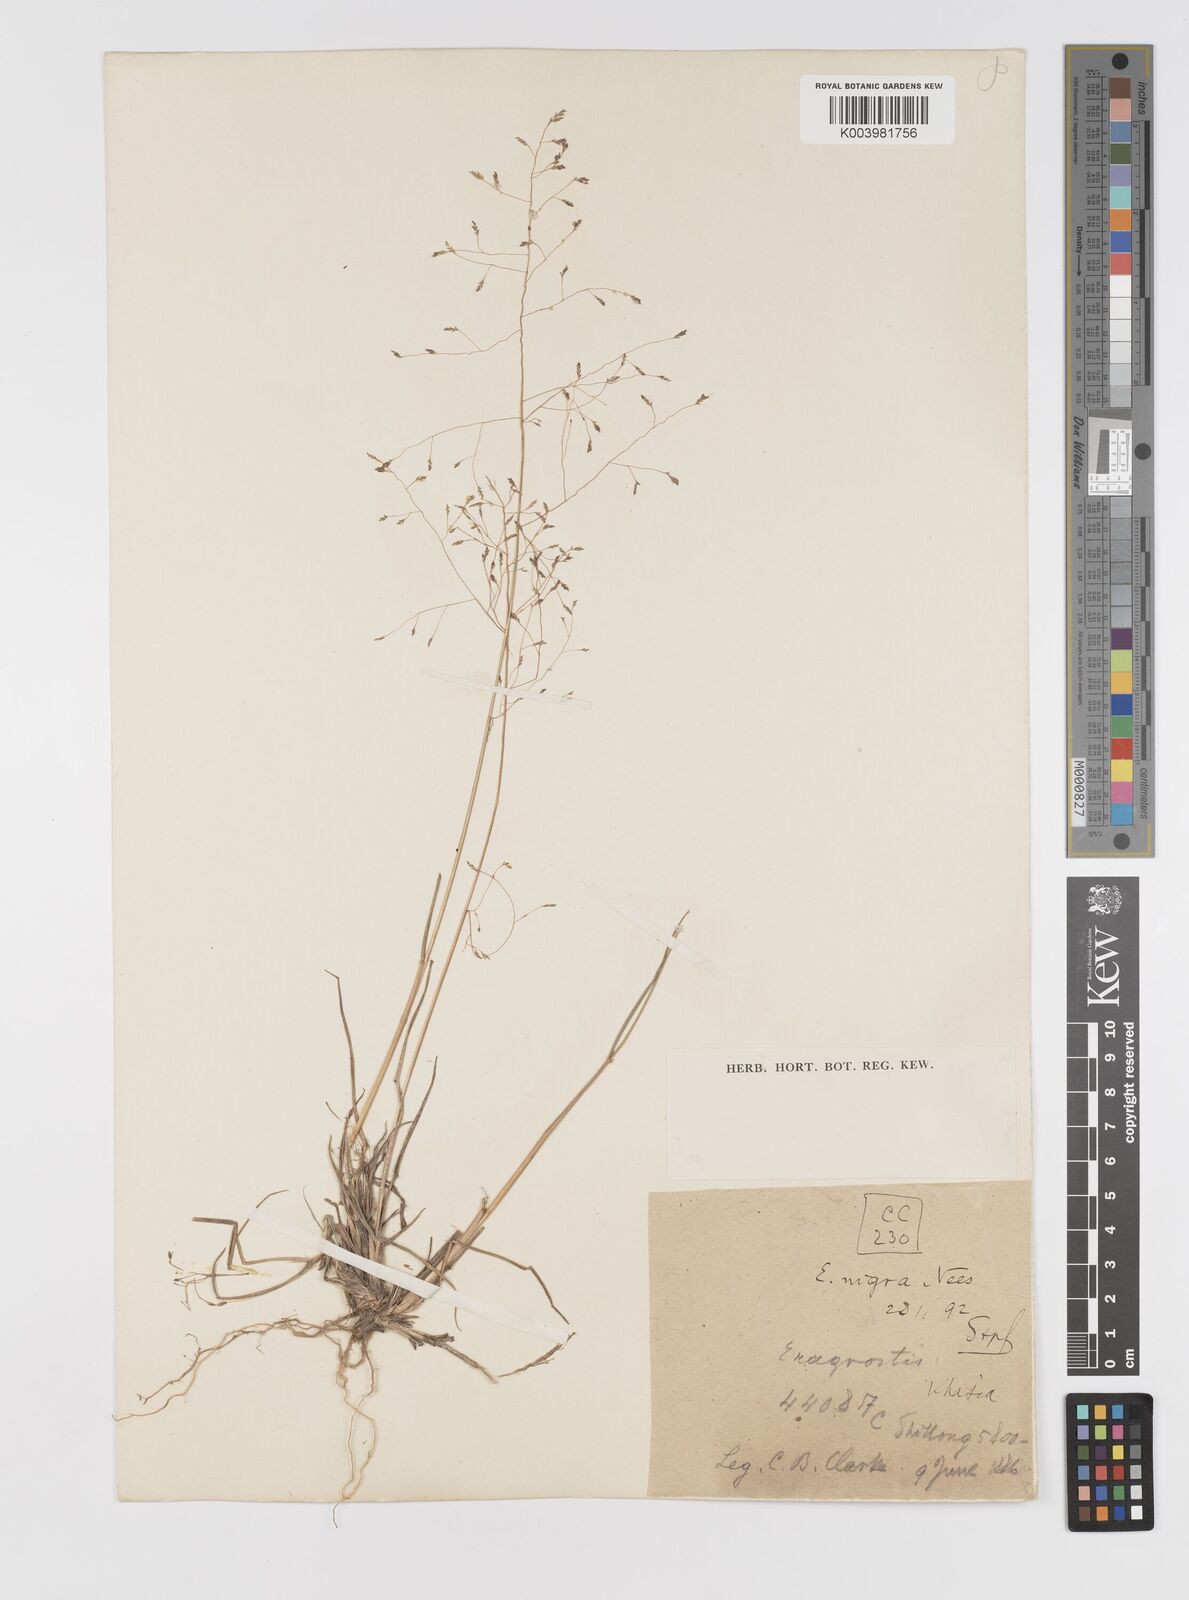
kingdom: Plantae
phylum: Tracheophyta
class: Liliopsida
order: Poales
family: Poaceae
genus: Eragrostis
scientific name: Eragrostis nigra
